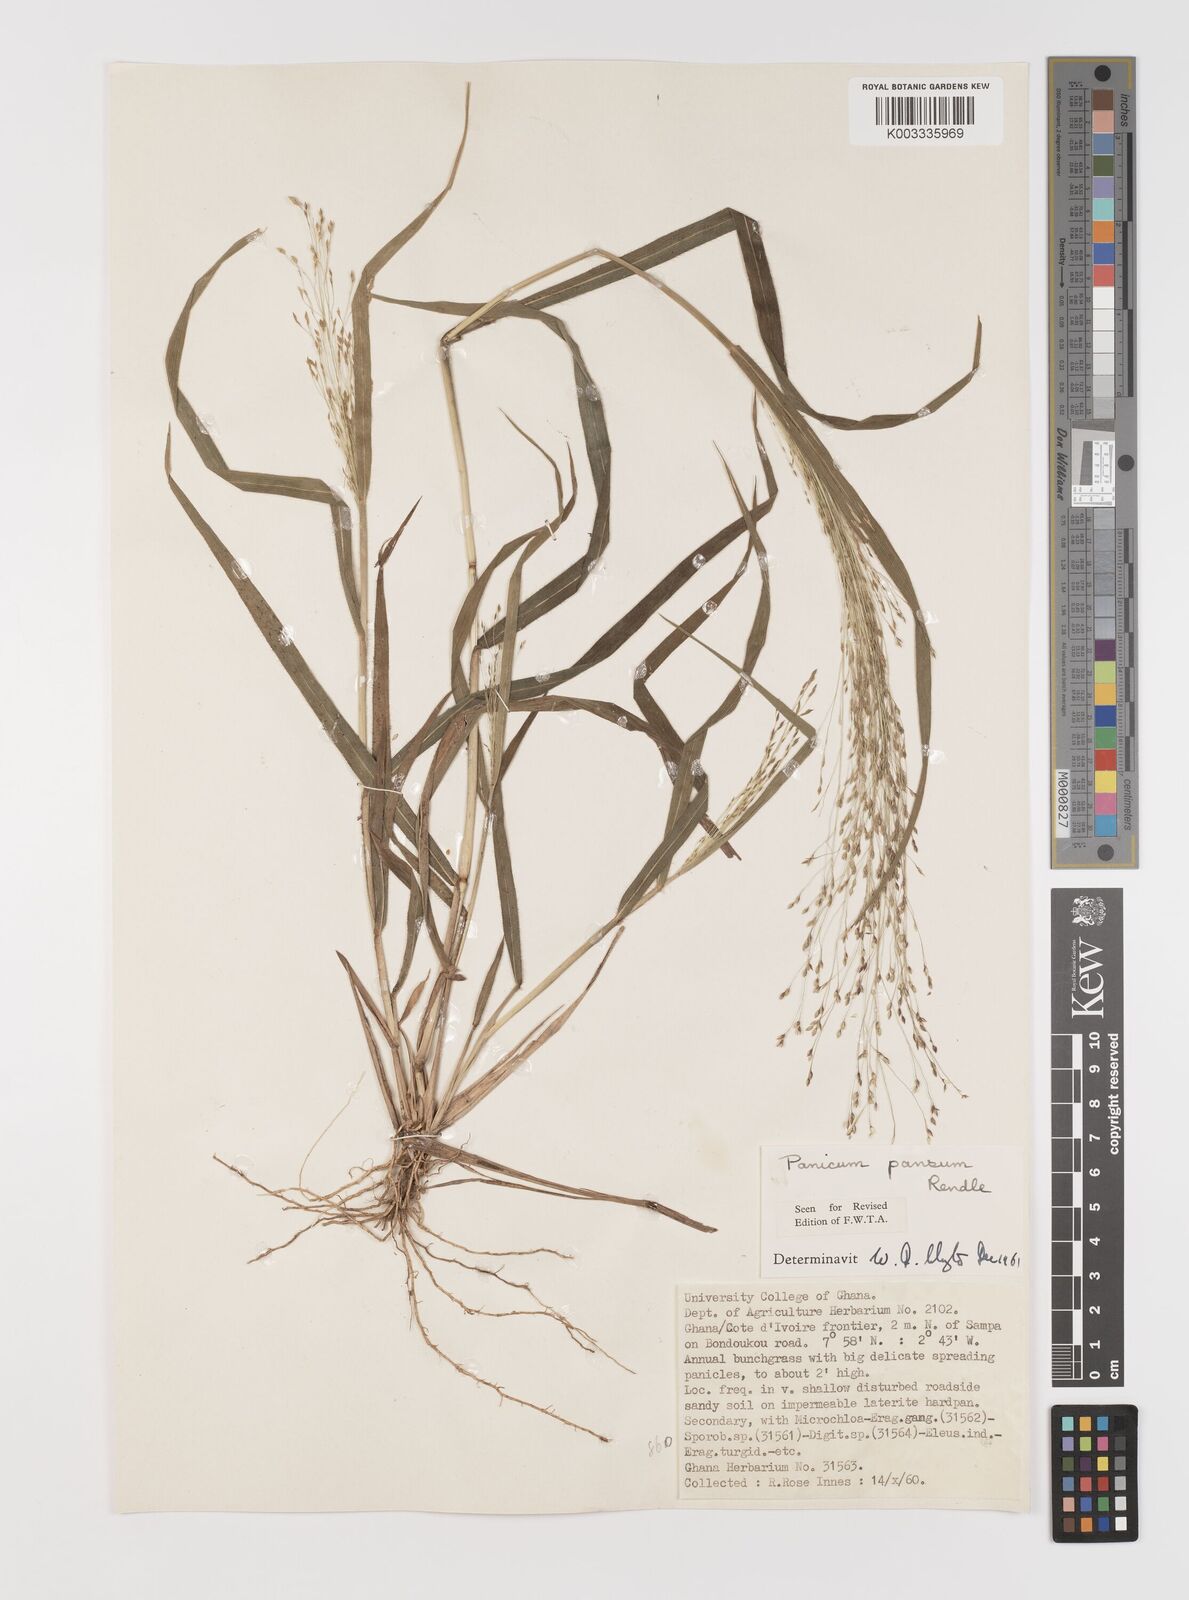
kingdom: Plantae
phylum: Tracheophyta
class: Liliopsida
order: Poales
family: Poaceae
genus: Panicum
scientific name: Panicum pansum
